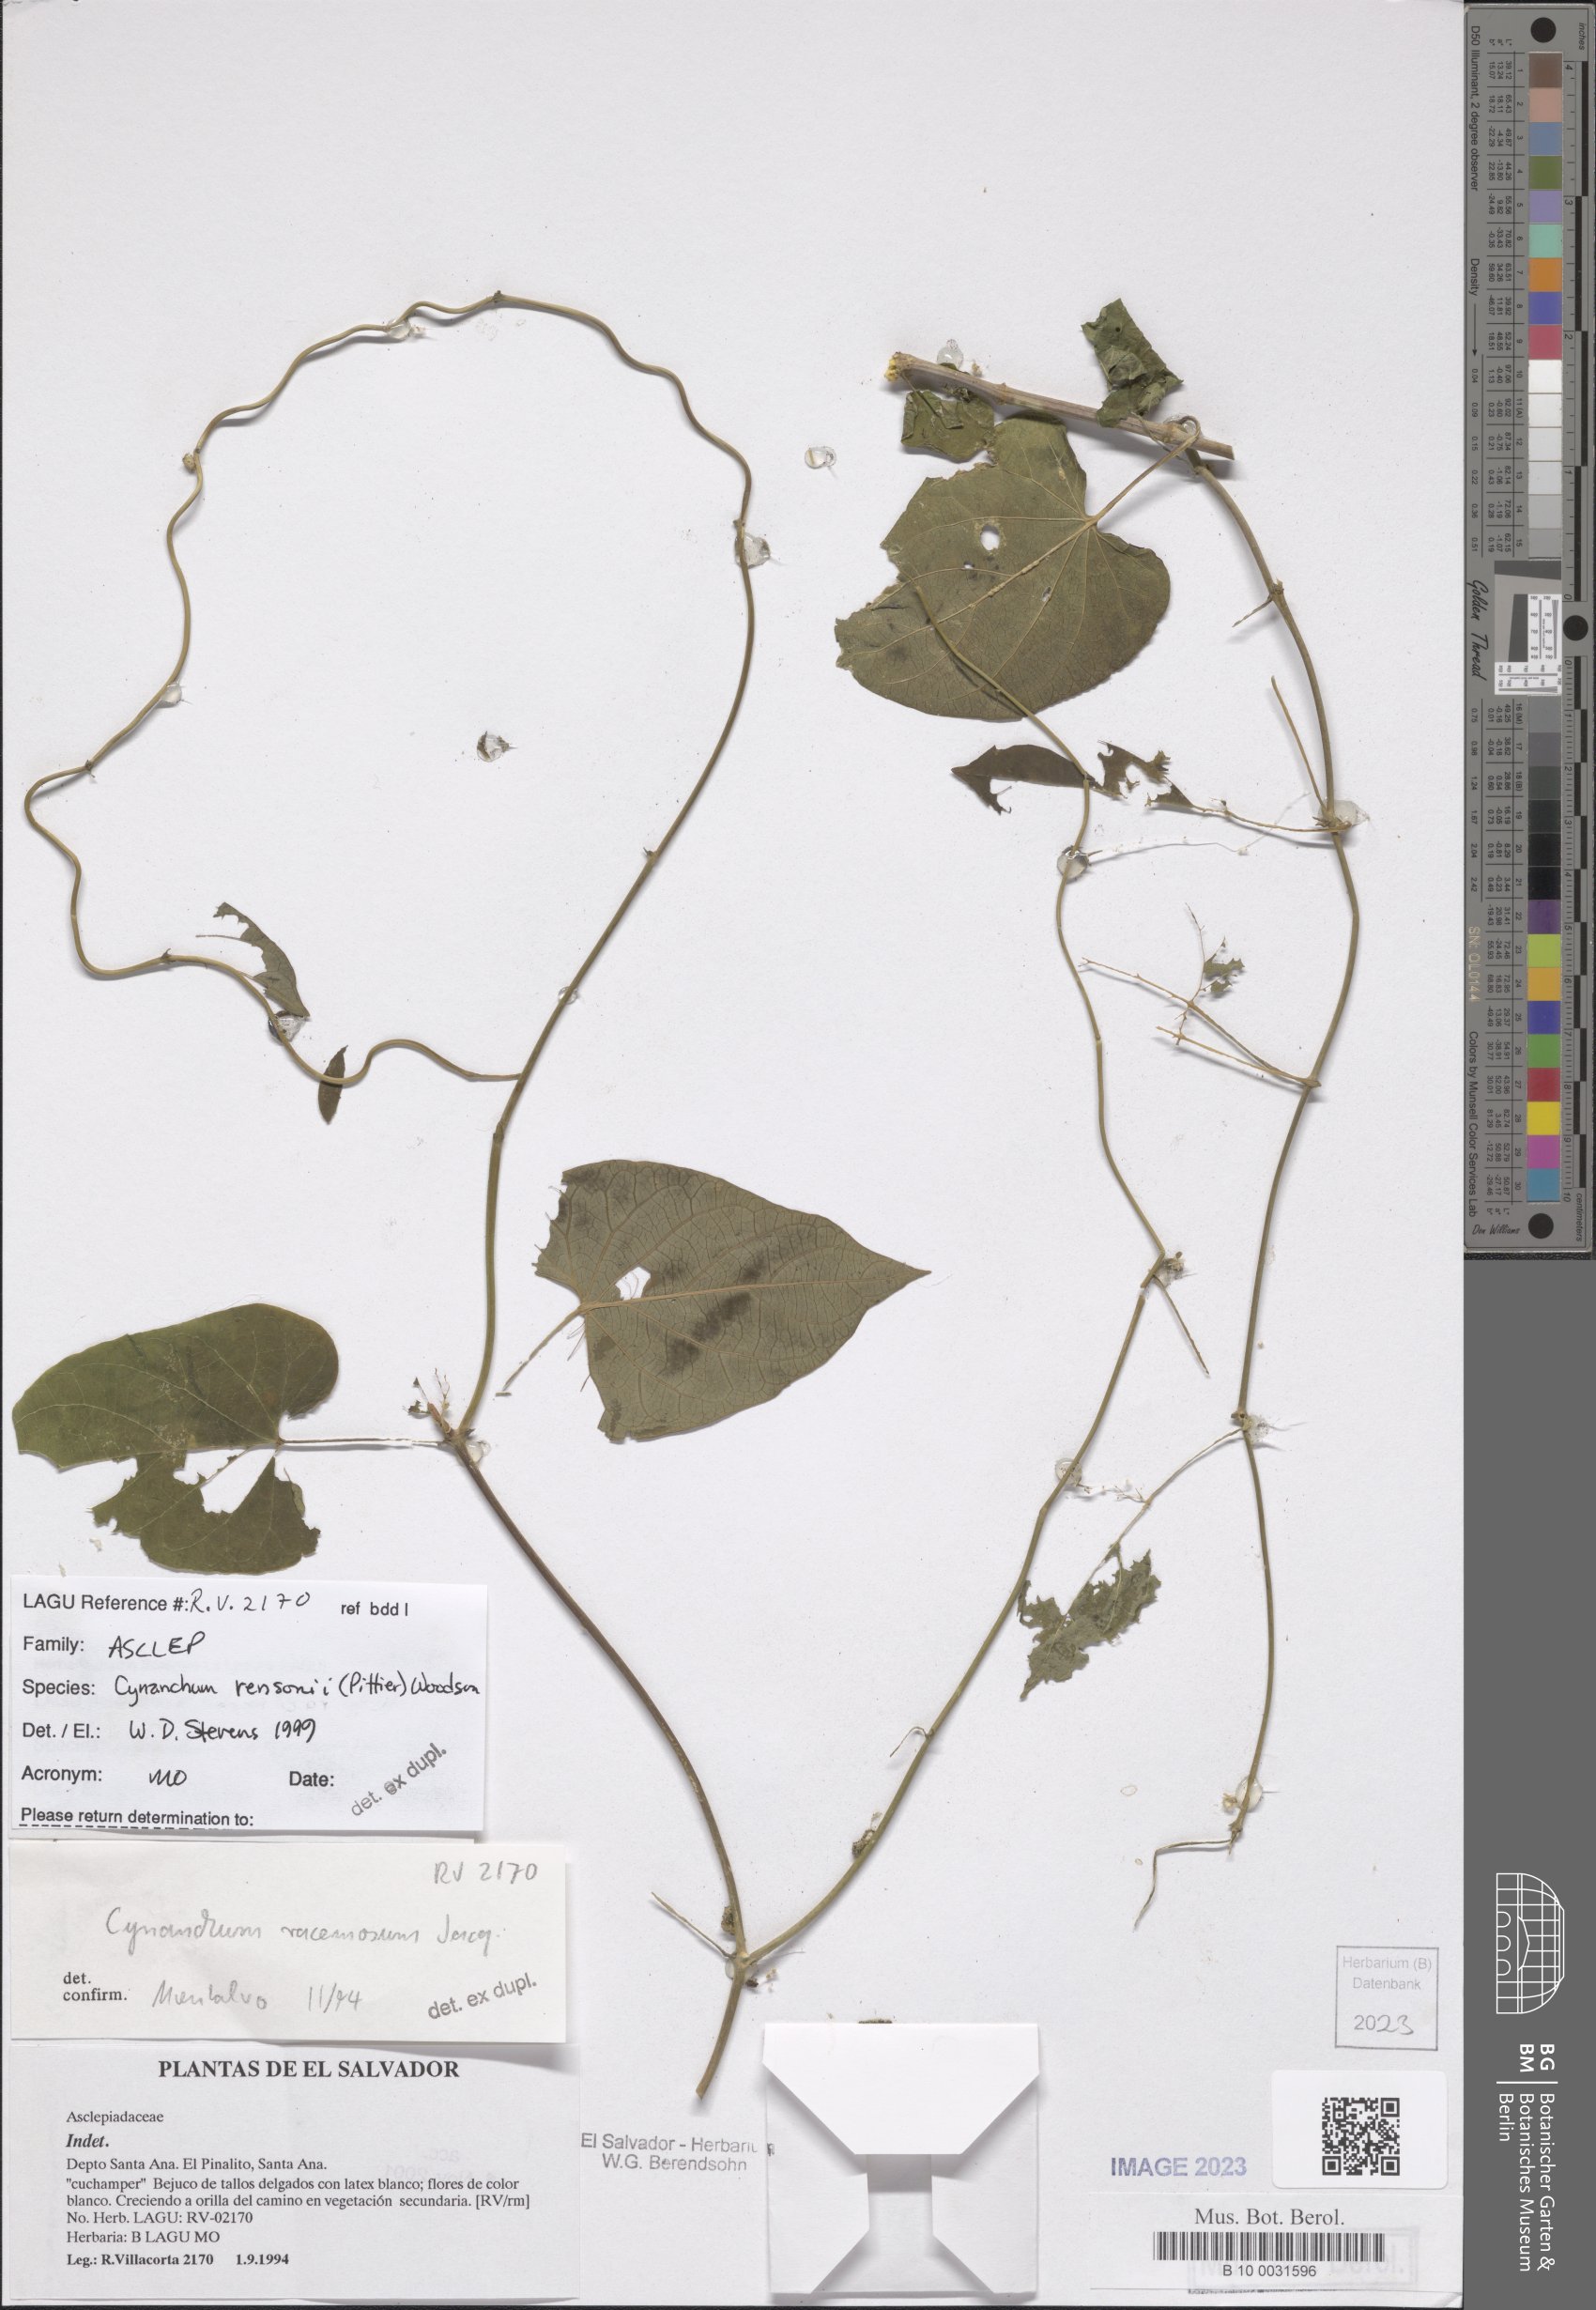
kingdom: Plantae
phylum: Tracheophyta
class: Magnoliopsida
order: Gentianales
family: Apocynaceae
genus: Cynanchum
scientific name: Cynanchum rensonii
